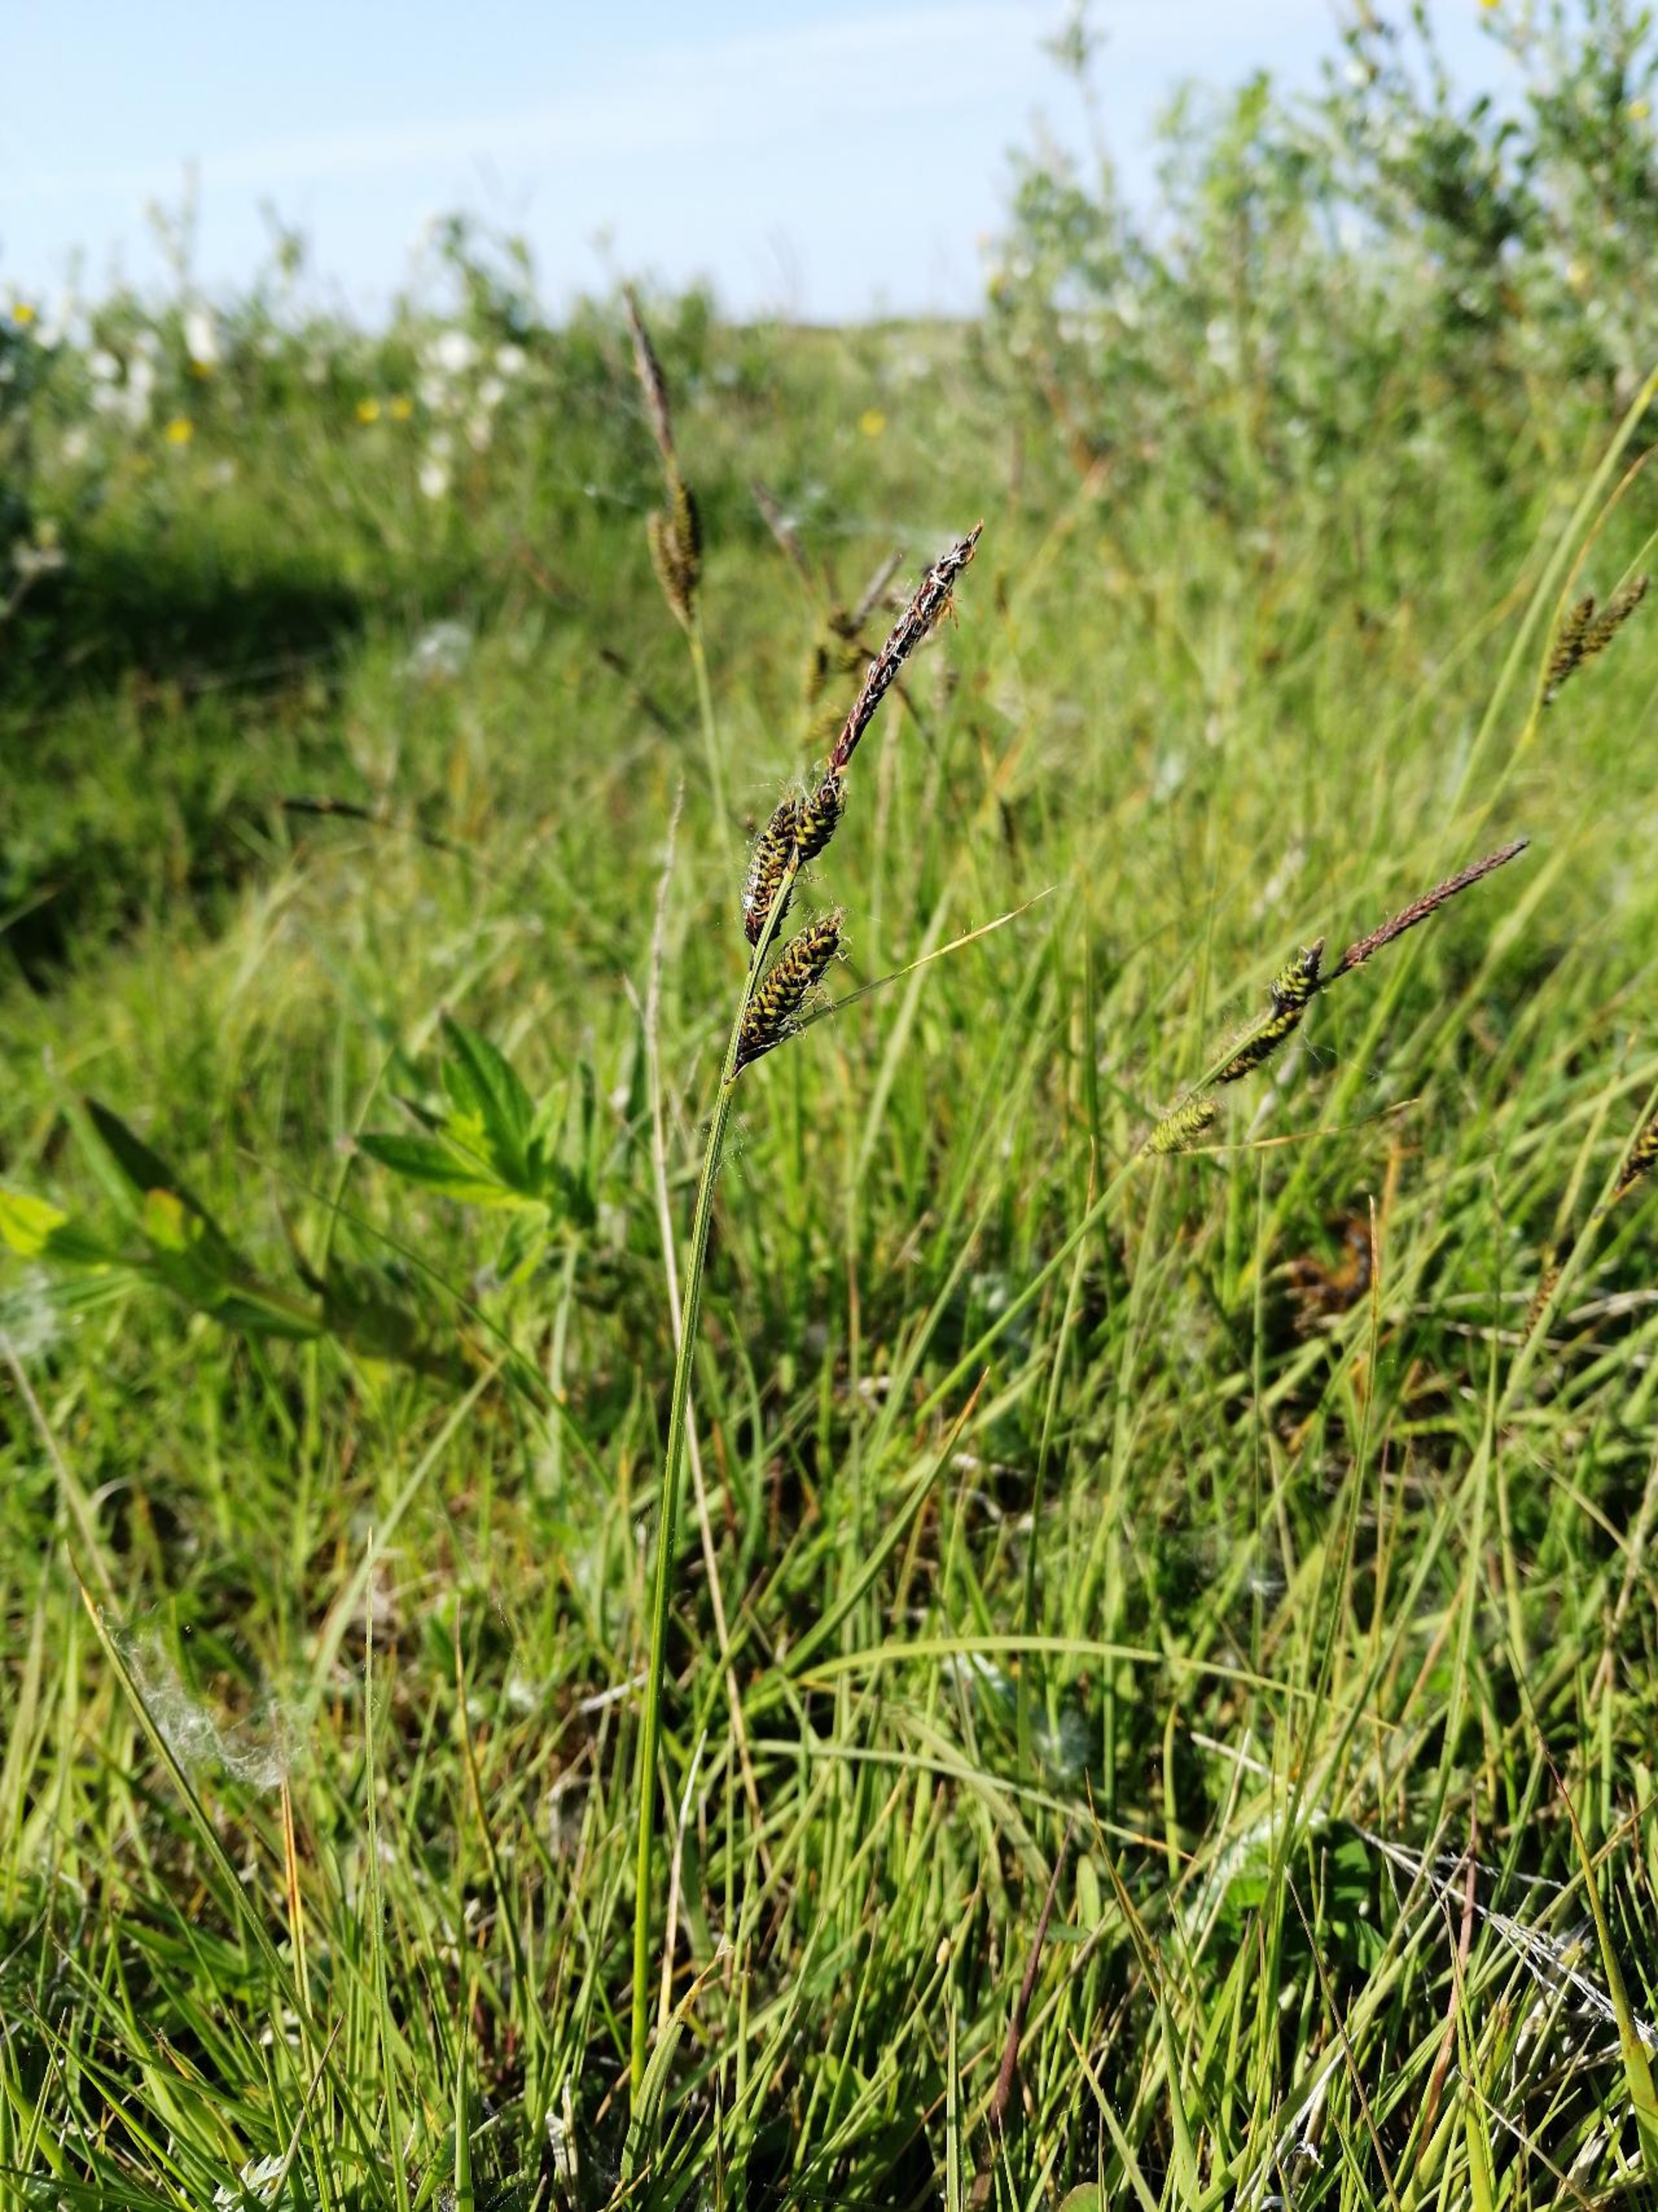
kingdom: Plantae
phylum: Tracheophyta
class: Liliopsida
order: Poales
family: Cyperaceae
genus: Carex
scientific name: Carex nigra
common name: Almindelig star
